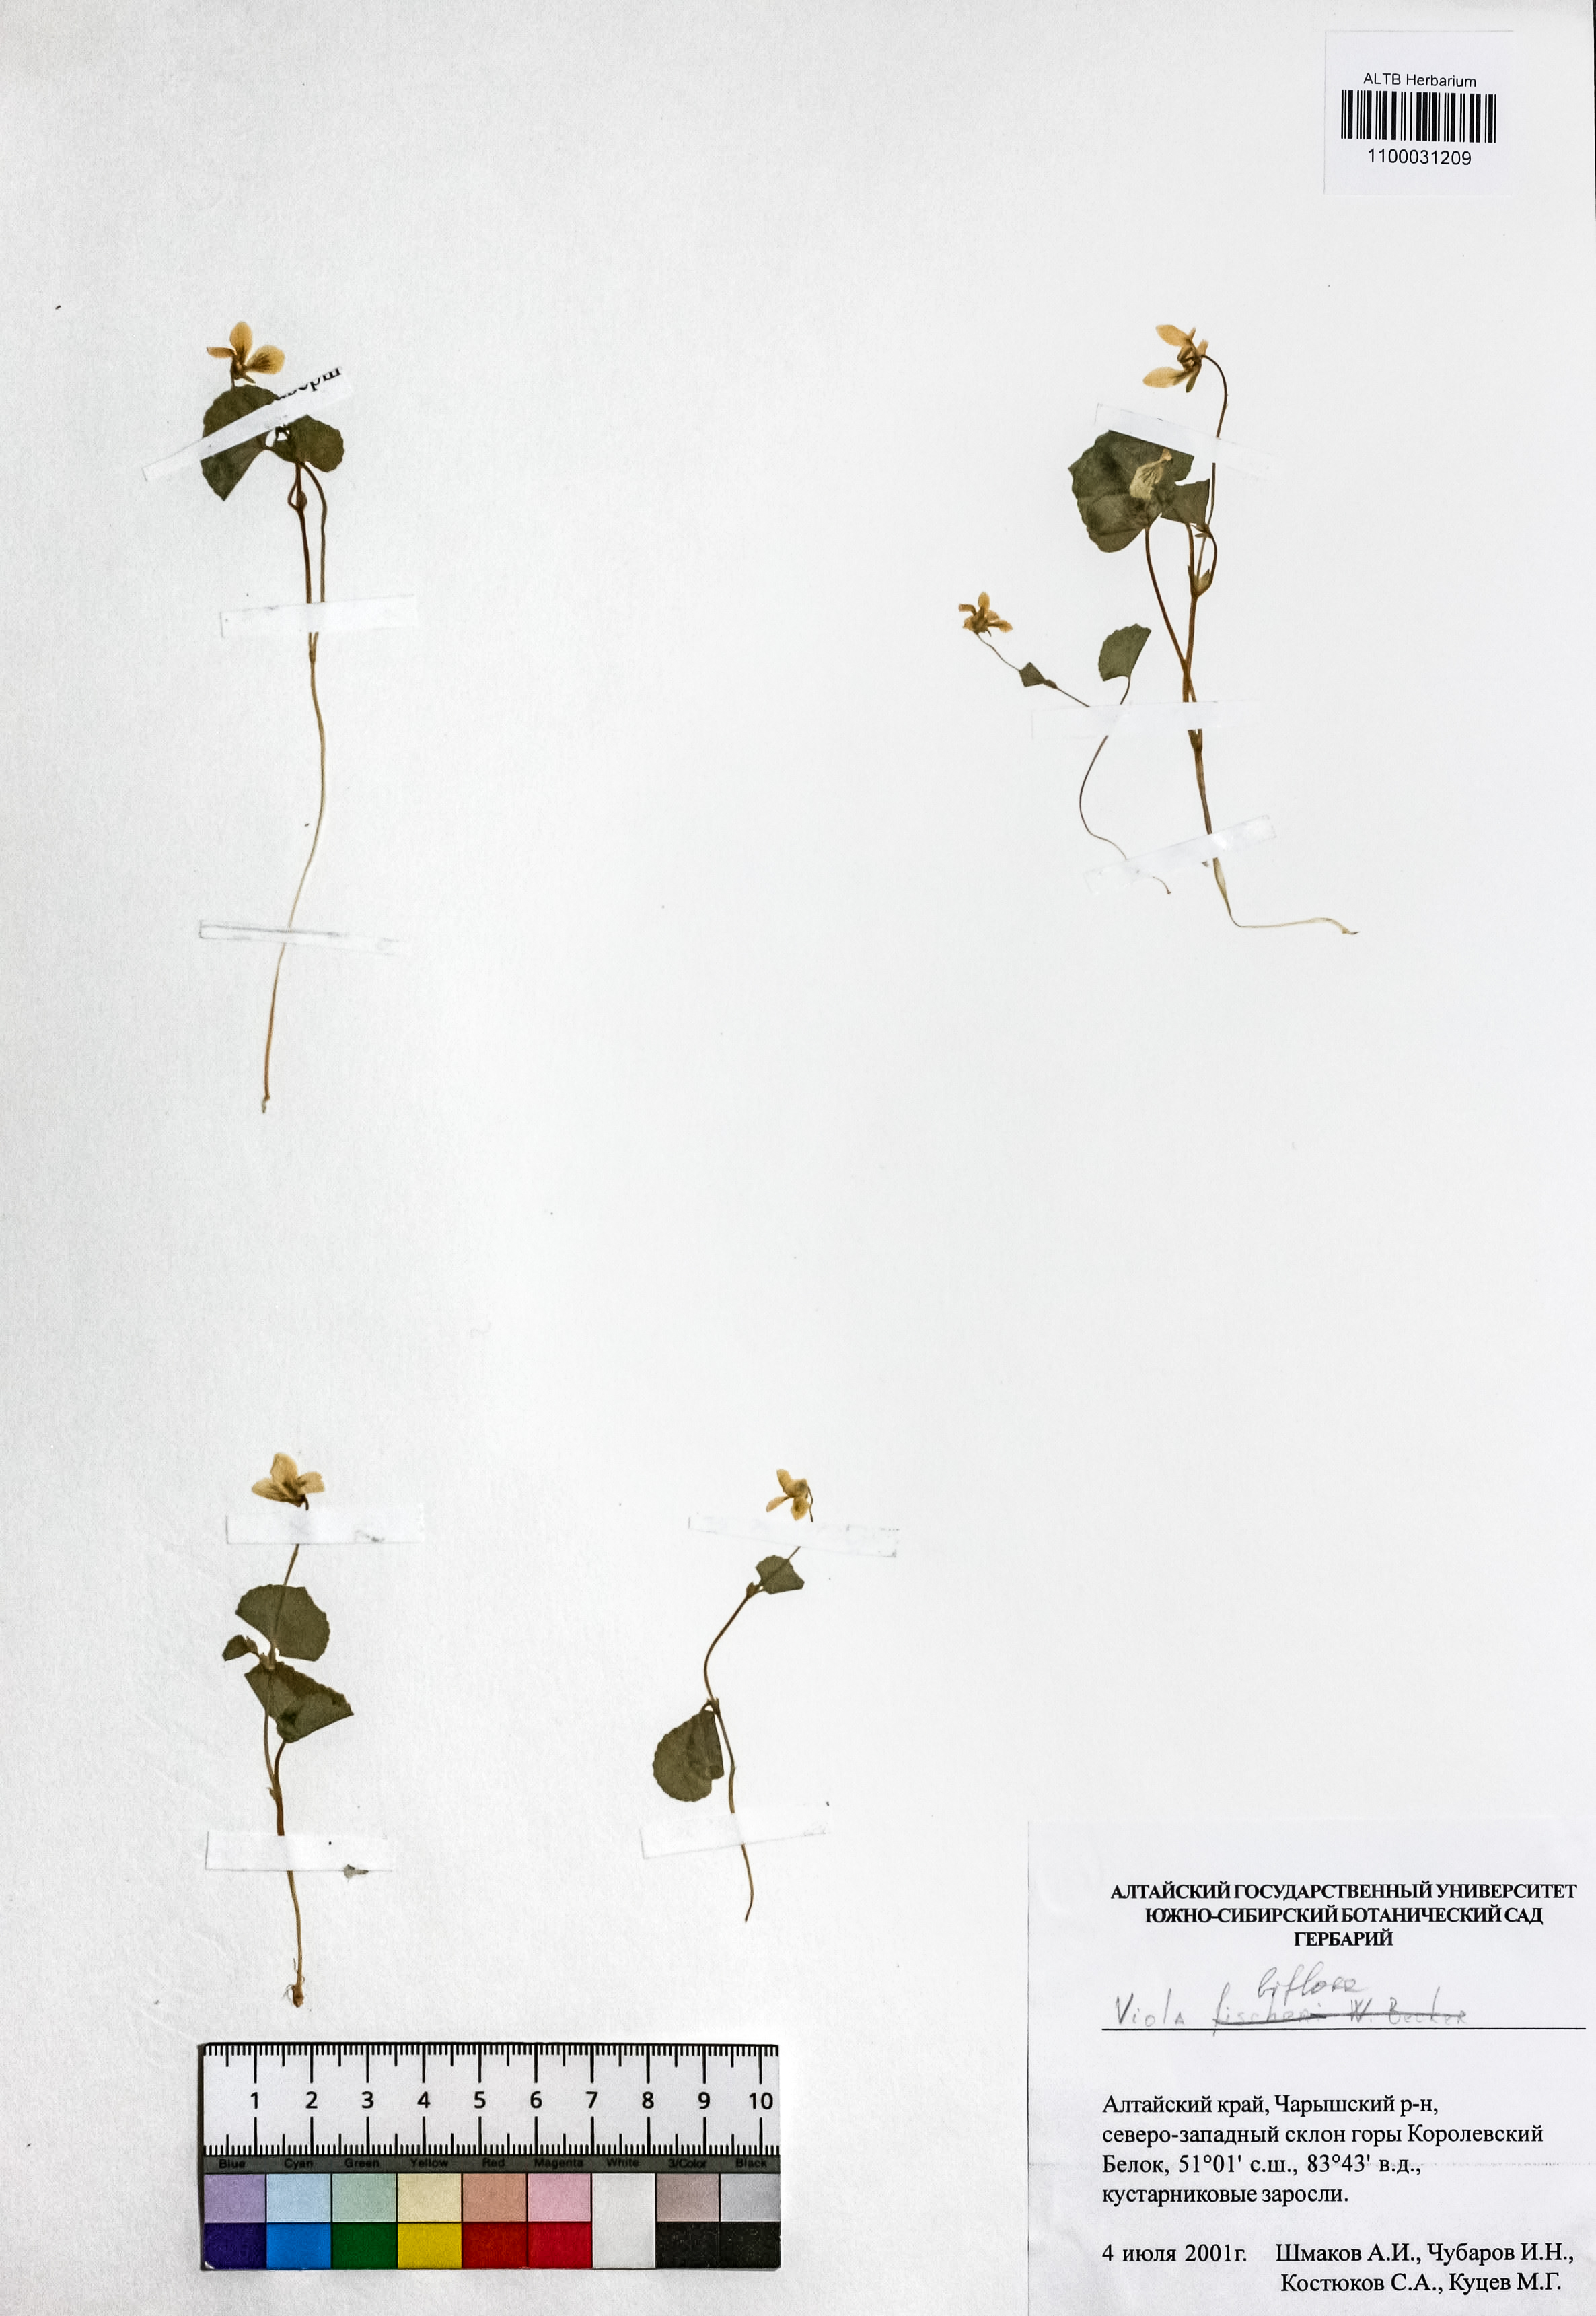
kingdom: Plantae
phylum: Tracheophyta
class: Magnoliopsida
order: Malpighiales
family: Violaceae
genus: Viola
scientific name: Viola biflora
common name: Alpine yellow violet
